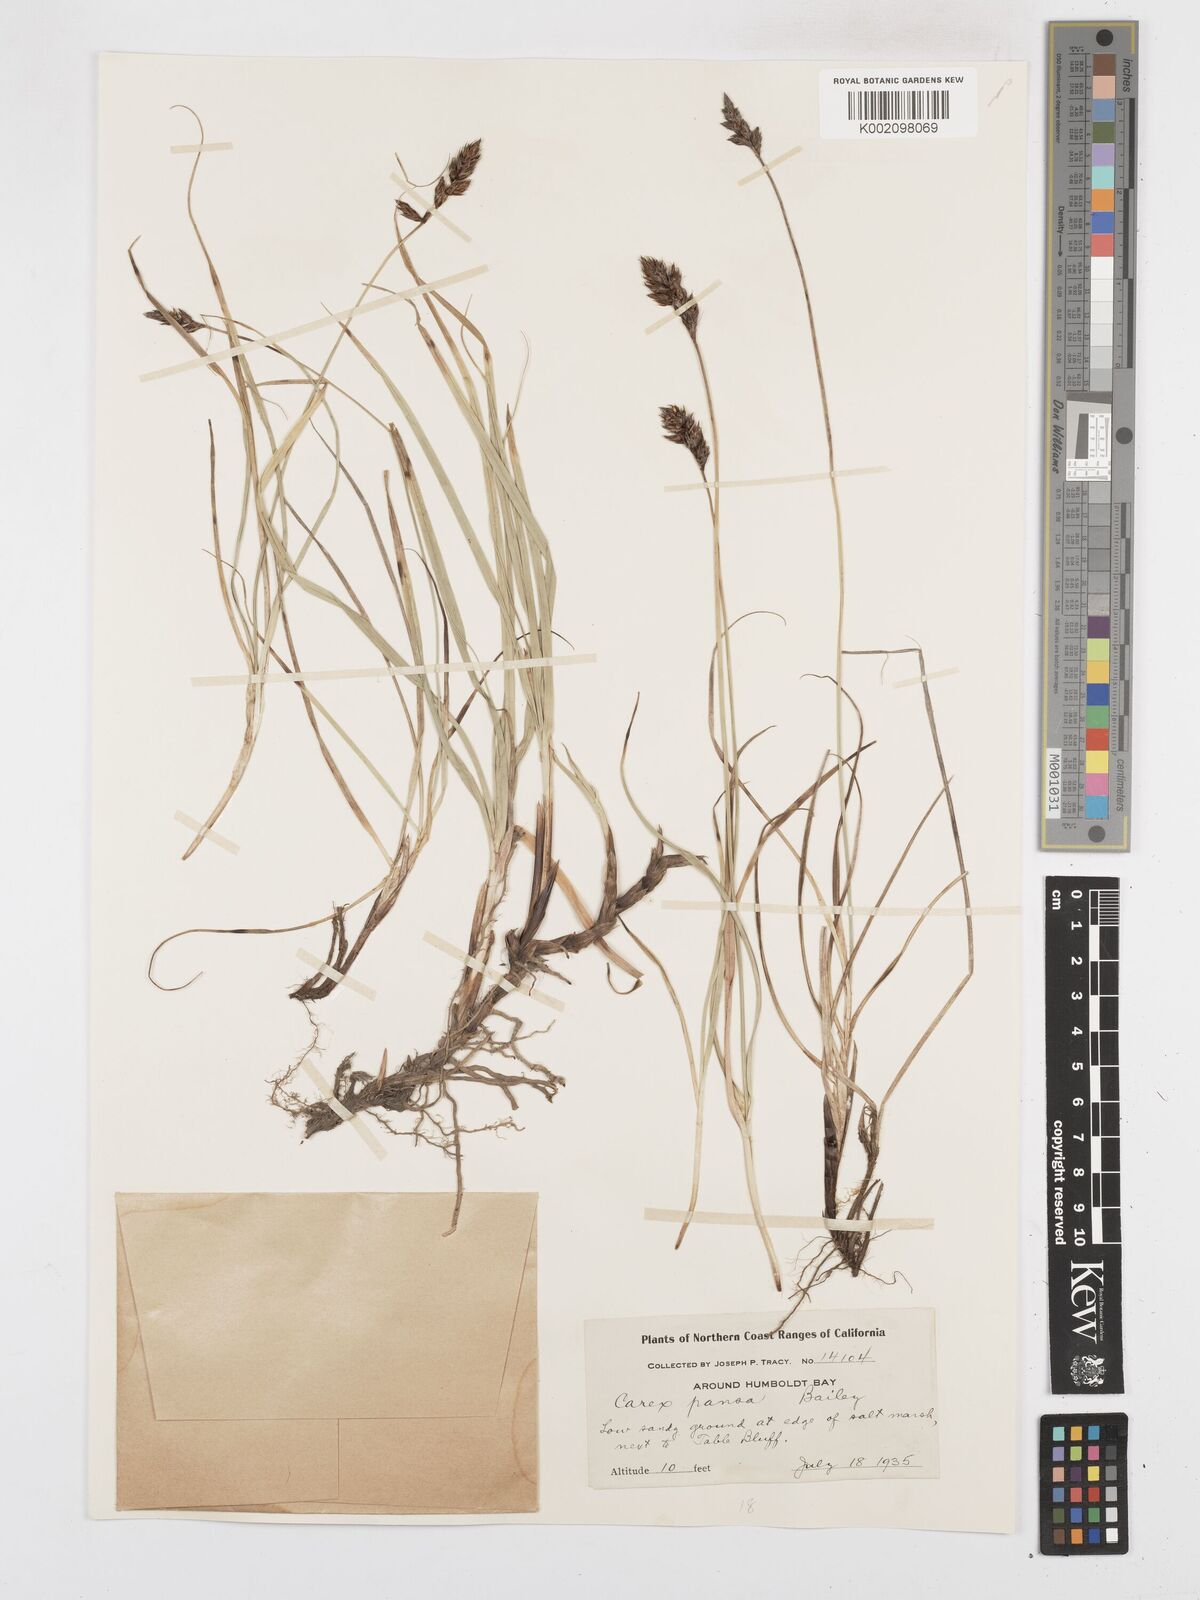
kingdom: Plantae
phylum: Tracheophyta
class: Liliopsida
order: Poales
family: Cyperaceae
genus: Carex
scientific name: Carex pansa
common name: Sand sedge
